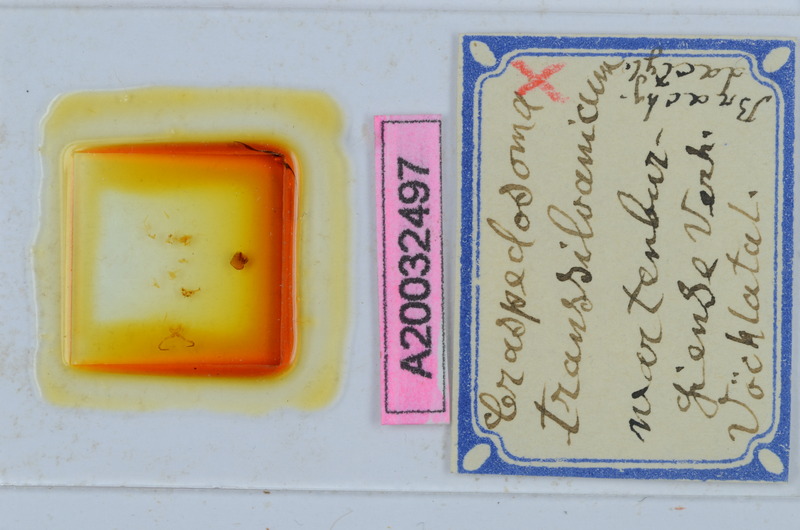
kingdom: Animalia
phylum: Arthropoda
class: Diplopoda
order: Chordeumatida
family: Craspedosomatidae
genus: Craspedosoma
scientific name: Craspedosoma transsilvanicum
